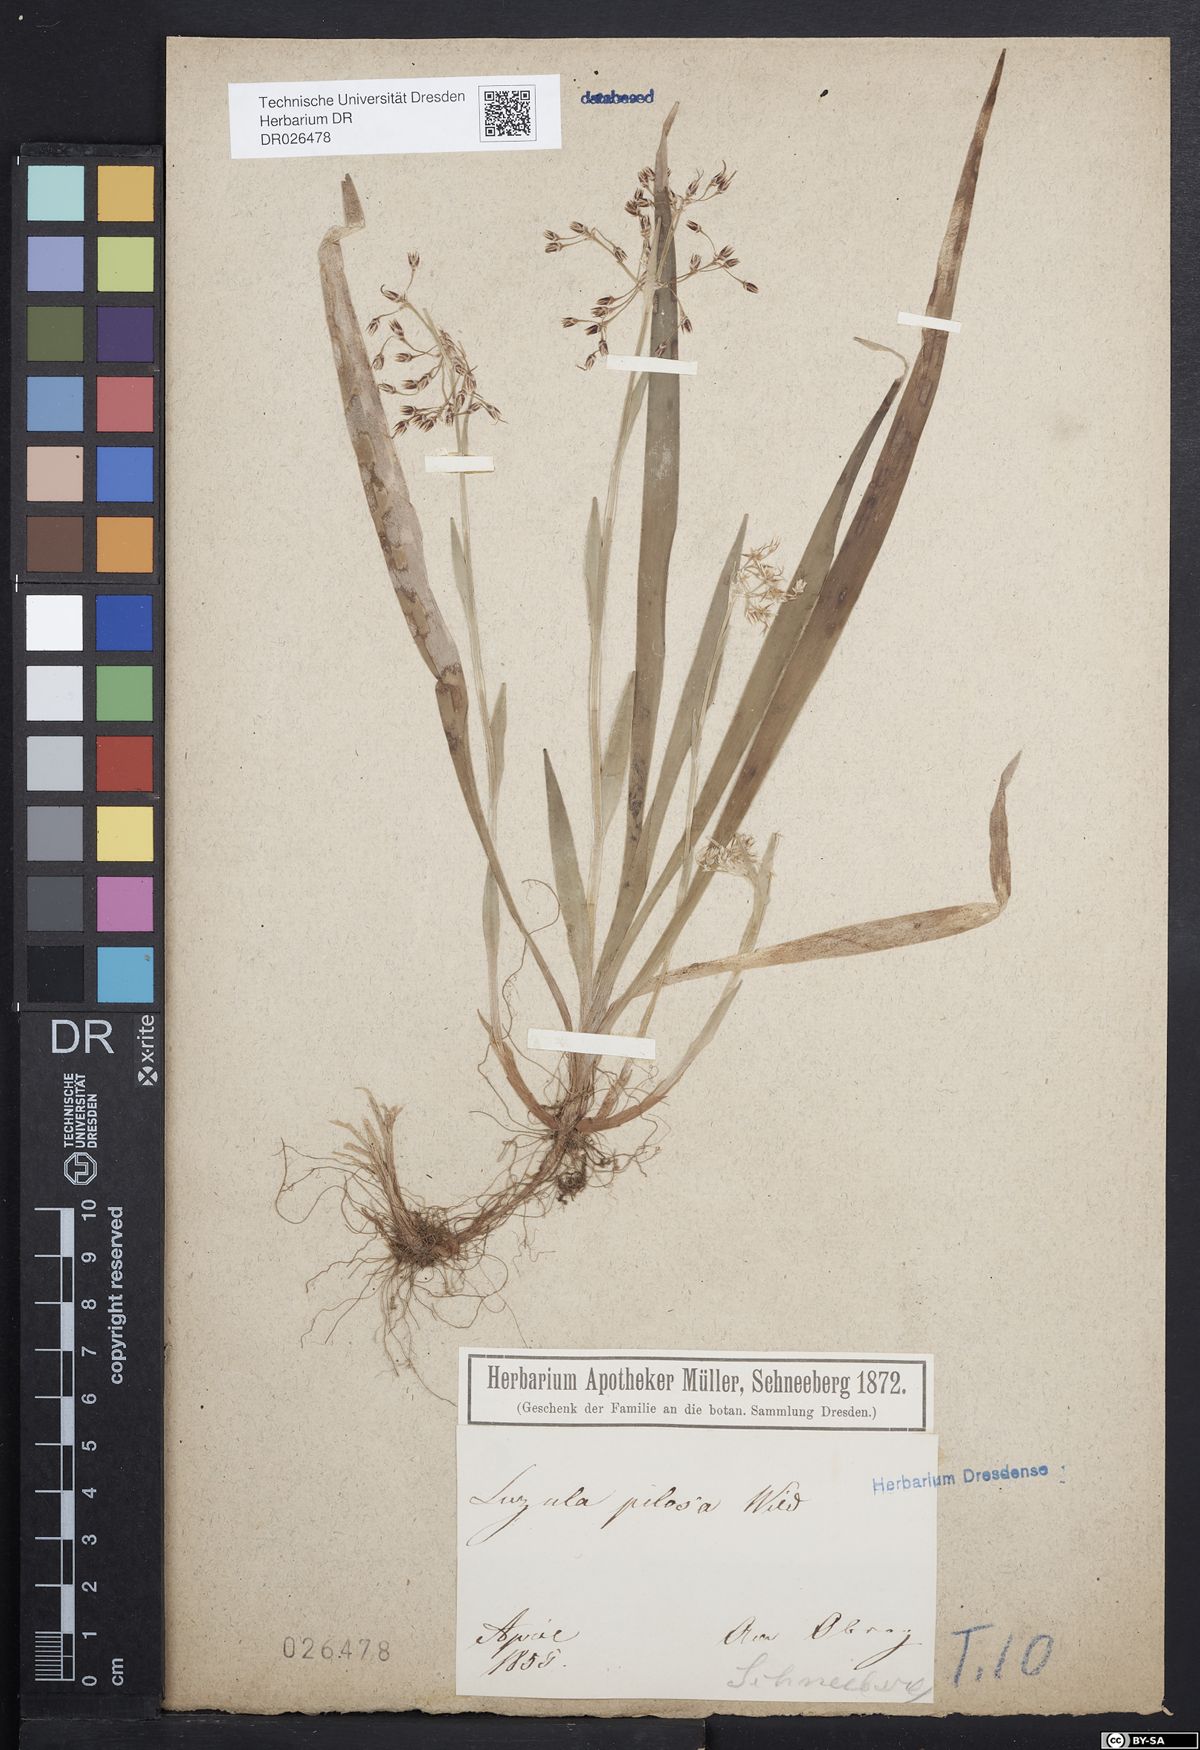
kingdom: Plantae
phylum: Tracheophyta
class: Liliopsida
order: Poales
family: Juncaceae
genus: Luzula
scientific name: Luzula pilosa
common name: Hairy wood-rush
